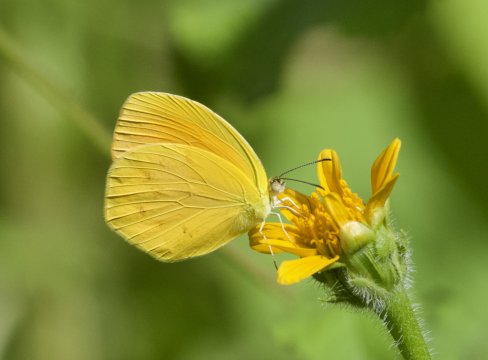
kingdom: Animalia
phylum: Arthropoda
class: Insecta
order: Lepidoptera
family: Pieridae
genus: Pyrisitia
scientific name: Pyrisitia proterpia
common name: Tailed Orange
